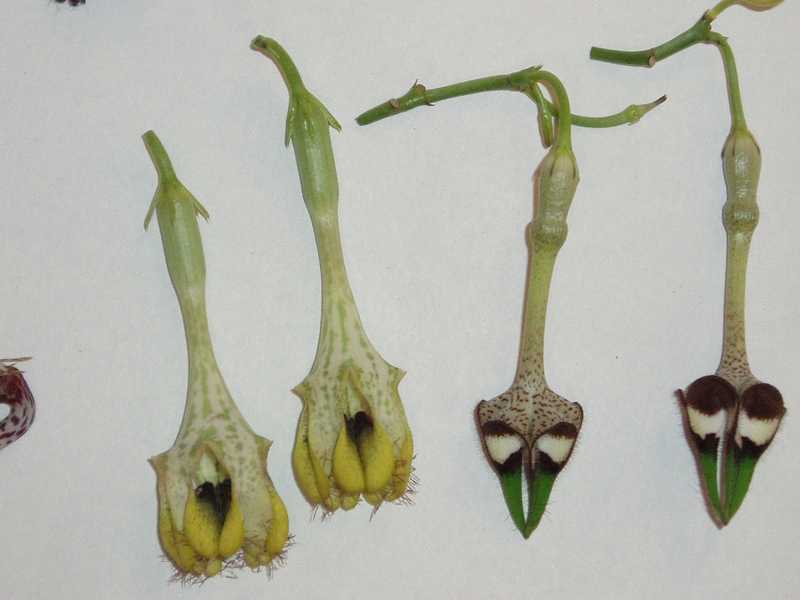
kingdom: Plantae
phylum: Tracheophyta
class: Magnoliopsida
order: Gentianales
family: Apocynaceae
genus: Ceropegia
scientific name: Ceropegia radicans
